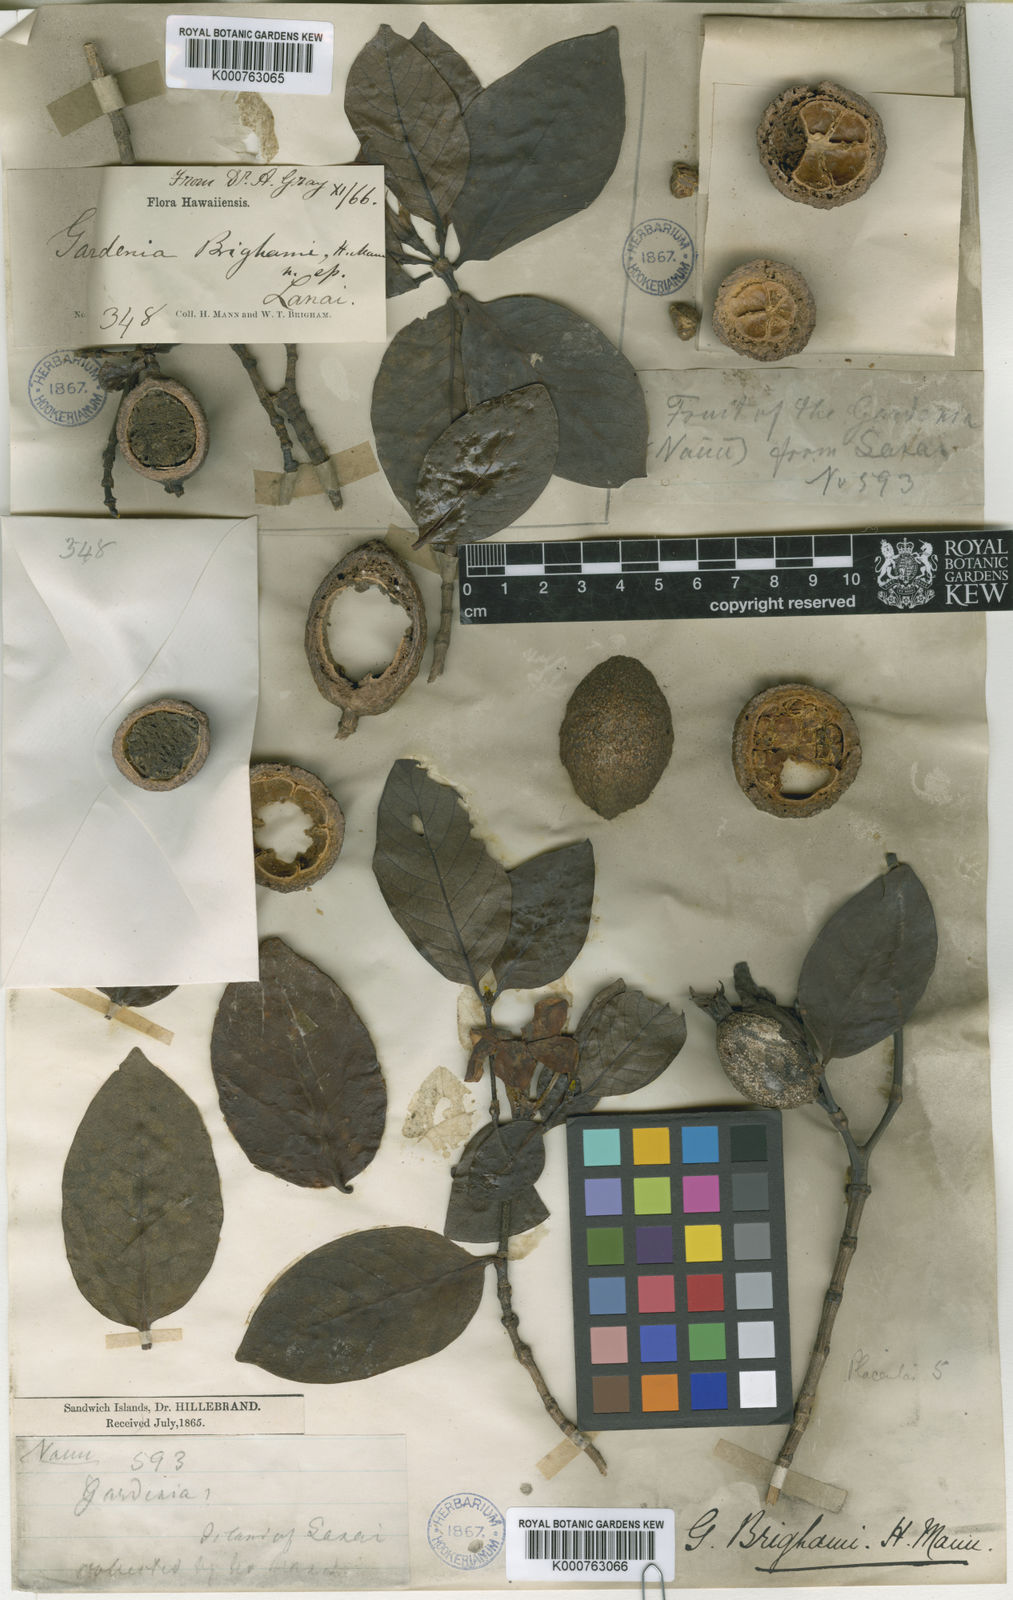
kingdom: Plantae
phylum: Tracheophyta
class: Magnoliopsida
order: Gentianales
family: Rubiaceae
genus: Gardenia
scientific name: Gardenia brighamii
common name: Forest gardenia
